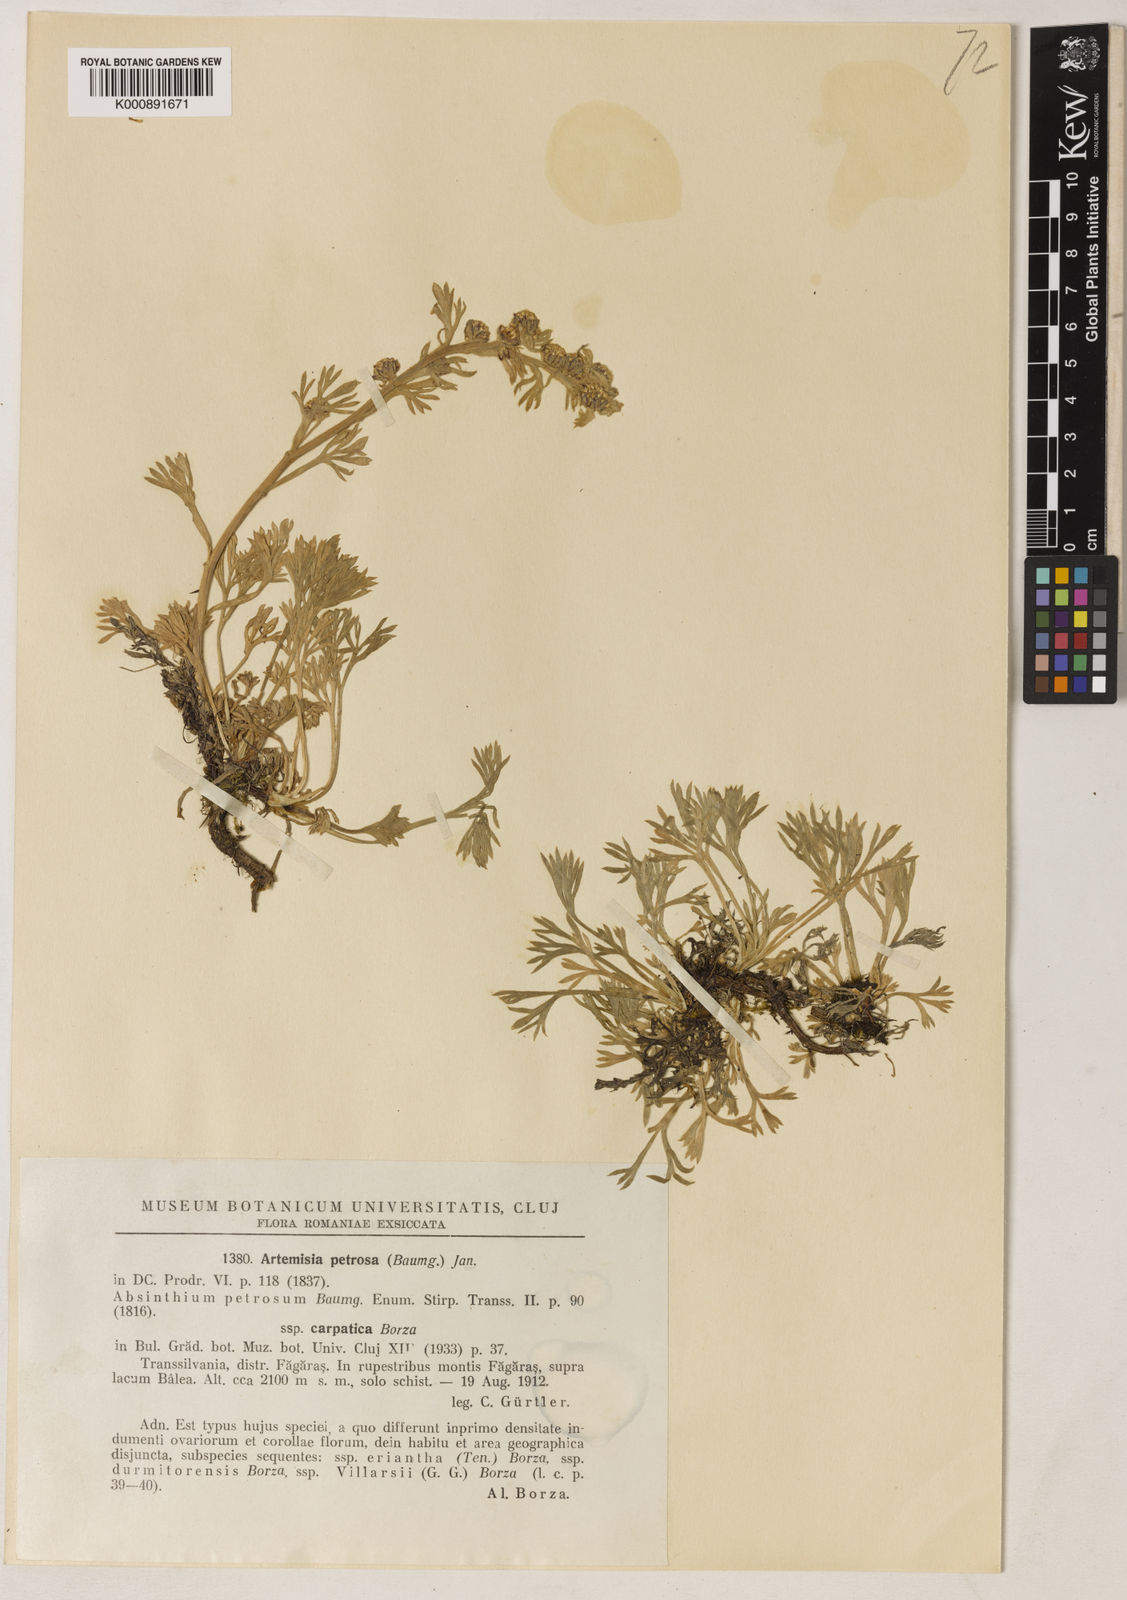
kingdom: Plantae
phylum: Tracheophyta
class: Magnoliopsida
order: Asterales
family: Asteraceae
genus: Artemisia
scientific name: Artemisia eriantha
